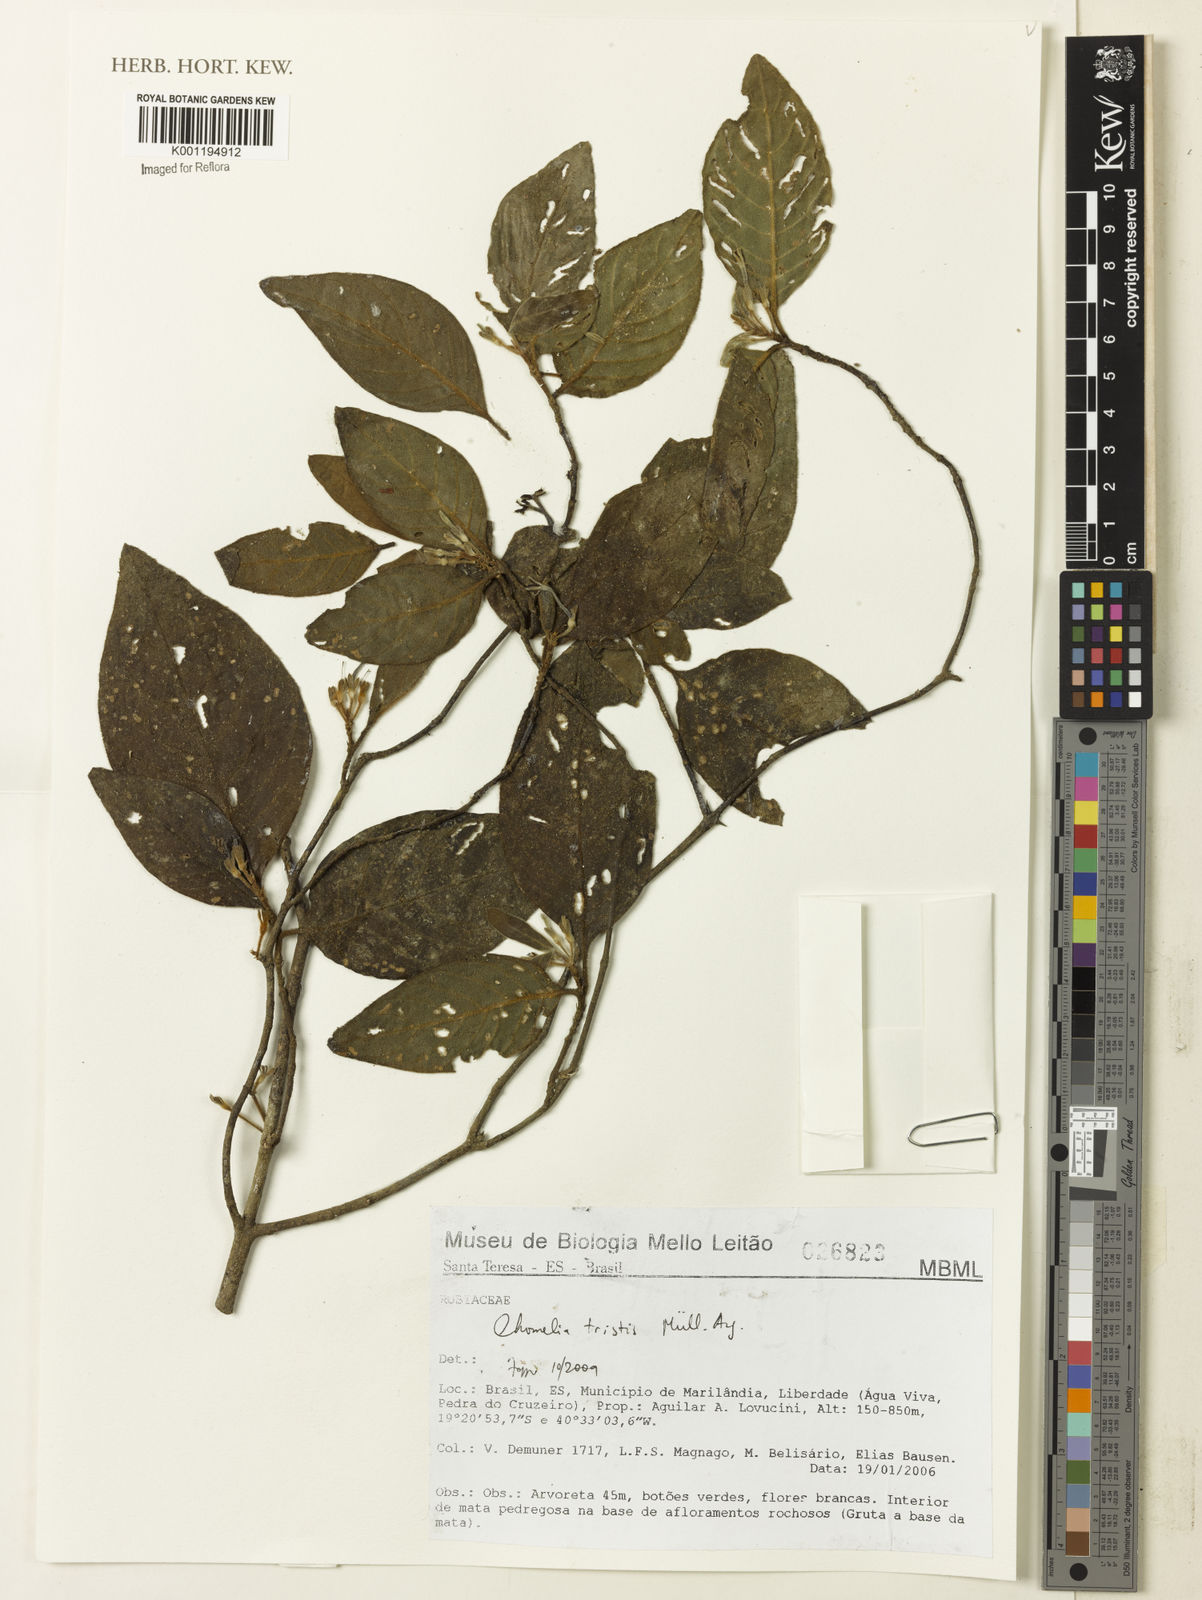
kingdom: Plantae
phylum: Tracheophyta
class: Magnoliopsida
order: Gentianales
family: Rubiaceae
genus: Chomelia
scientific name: Chomelia
